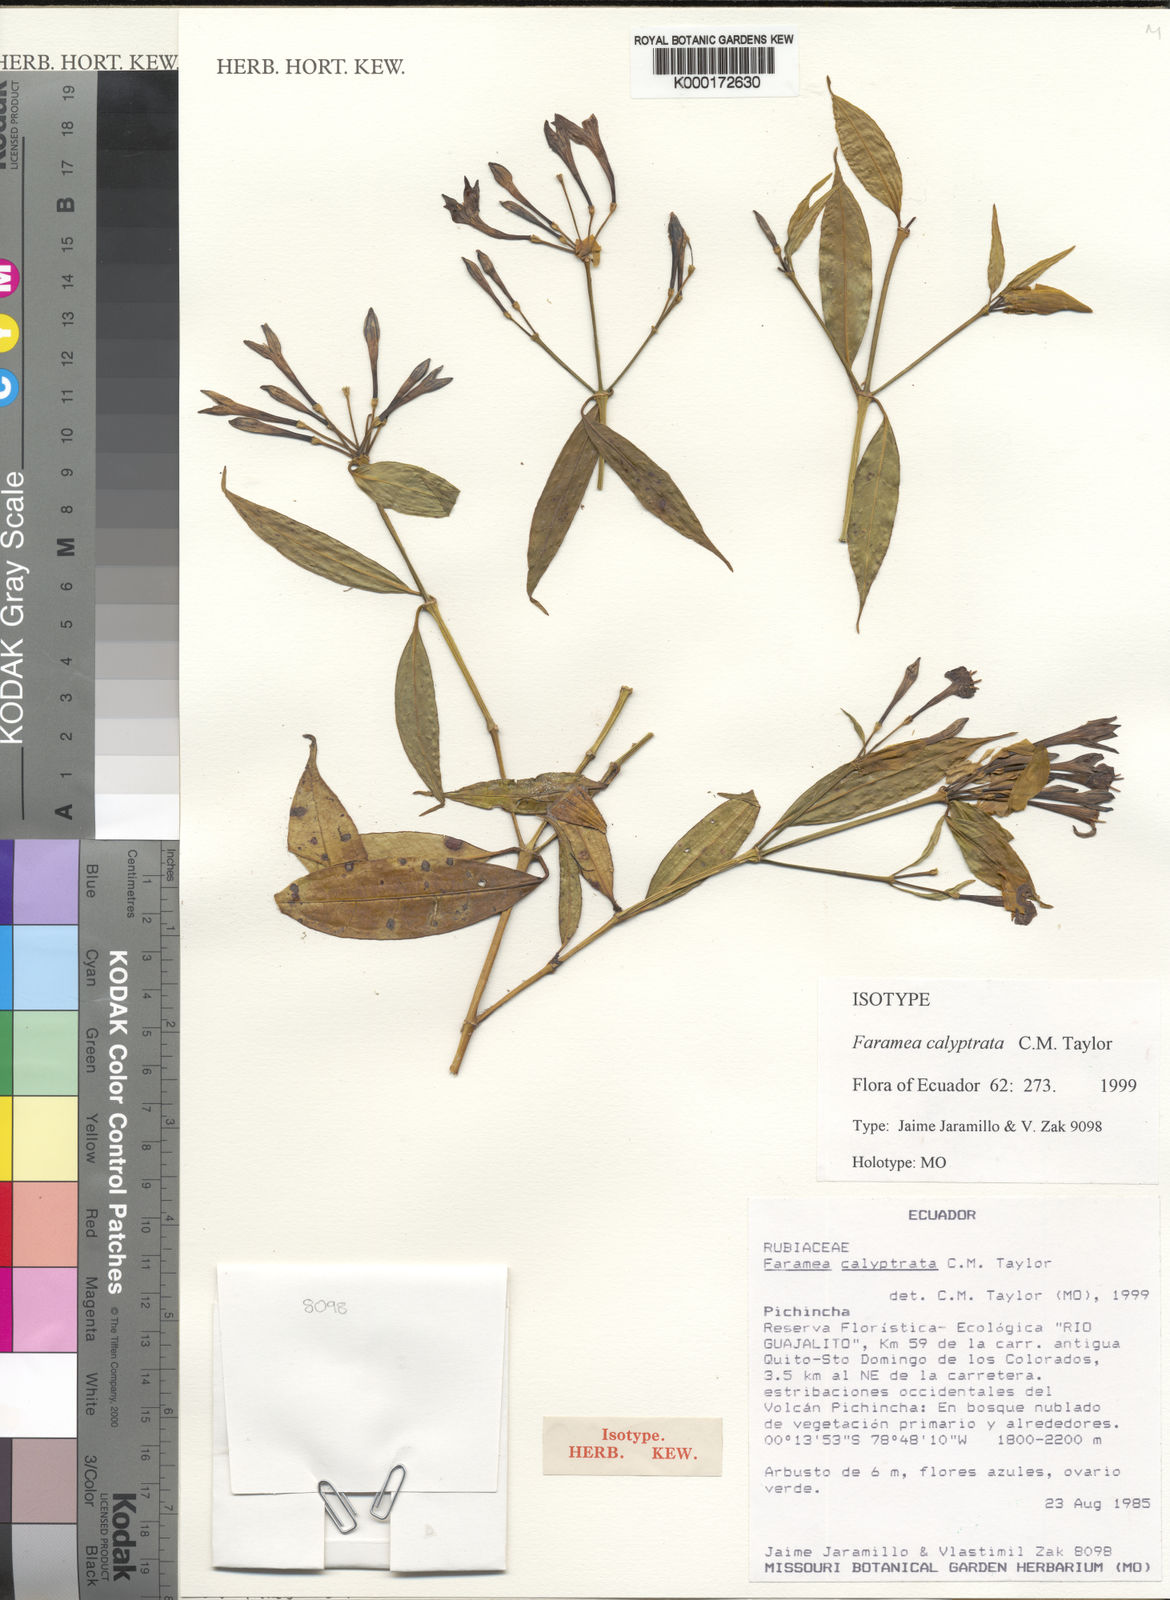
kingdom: Plantae
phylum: Tracheophyta
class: Magnoliopsida
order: Gentianales
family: Rubiaceae
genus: Faramea
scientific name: Faramea calyptrata
